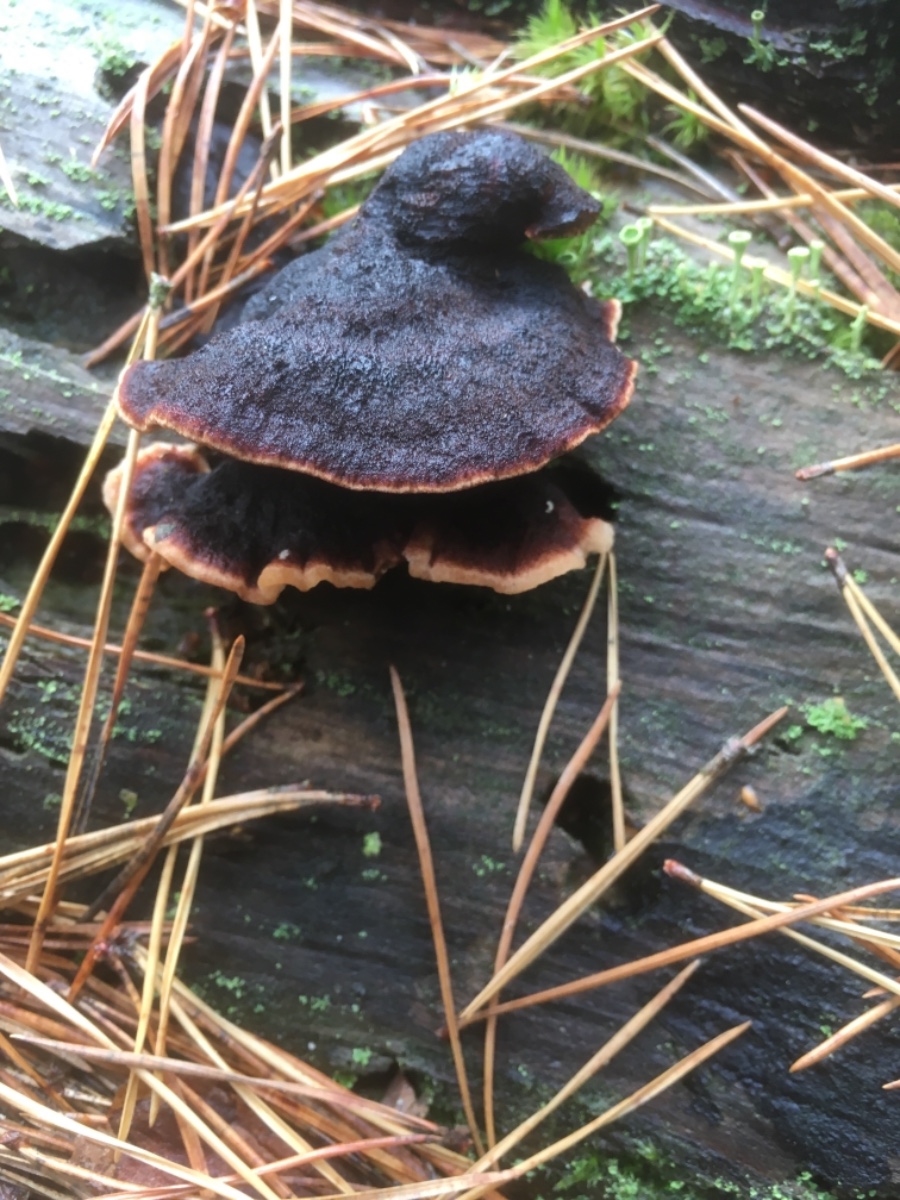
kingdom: Fungi
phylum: Basidiomycota
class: Agaricomycetes
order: Polyporales
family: Ischnodermataceae
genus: Ischnoderma
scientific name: Ischnoderma benzoinum
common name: gran-tjæreporesvamp
